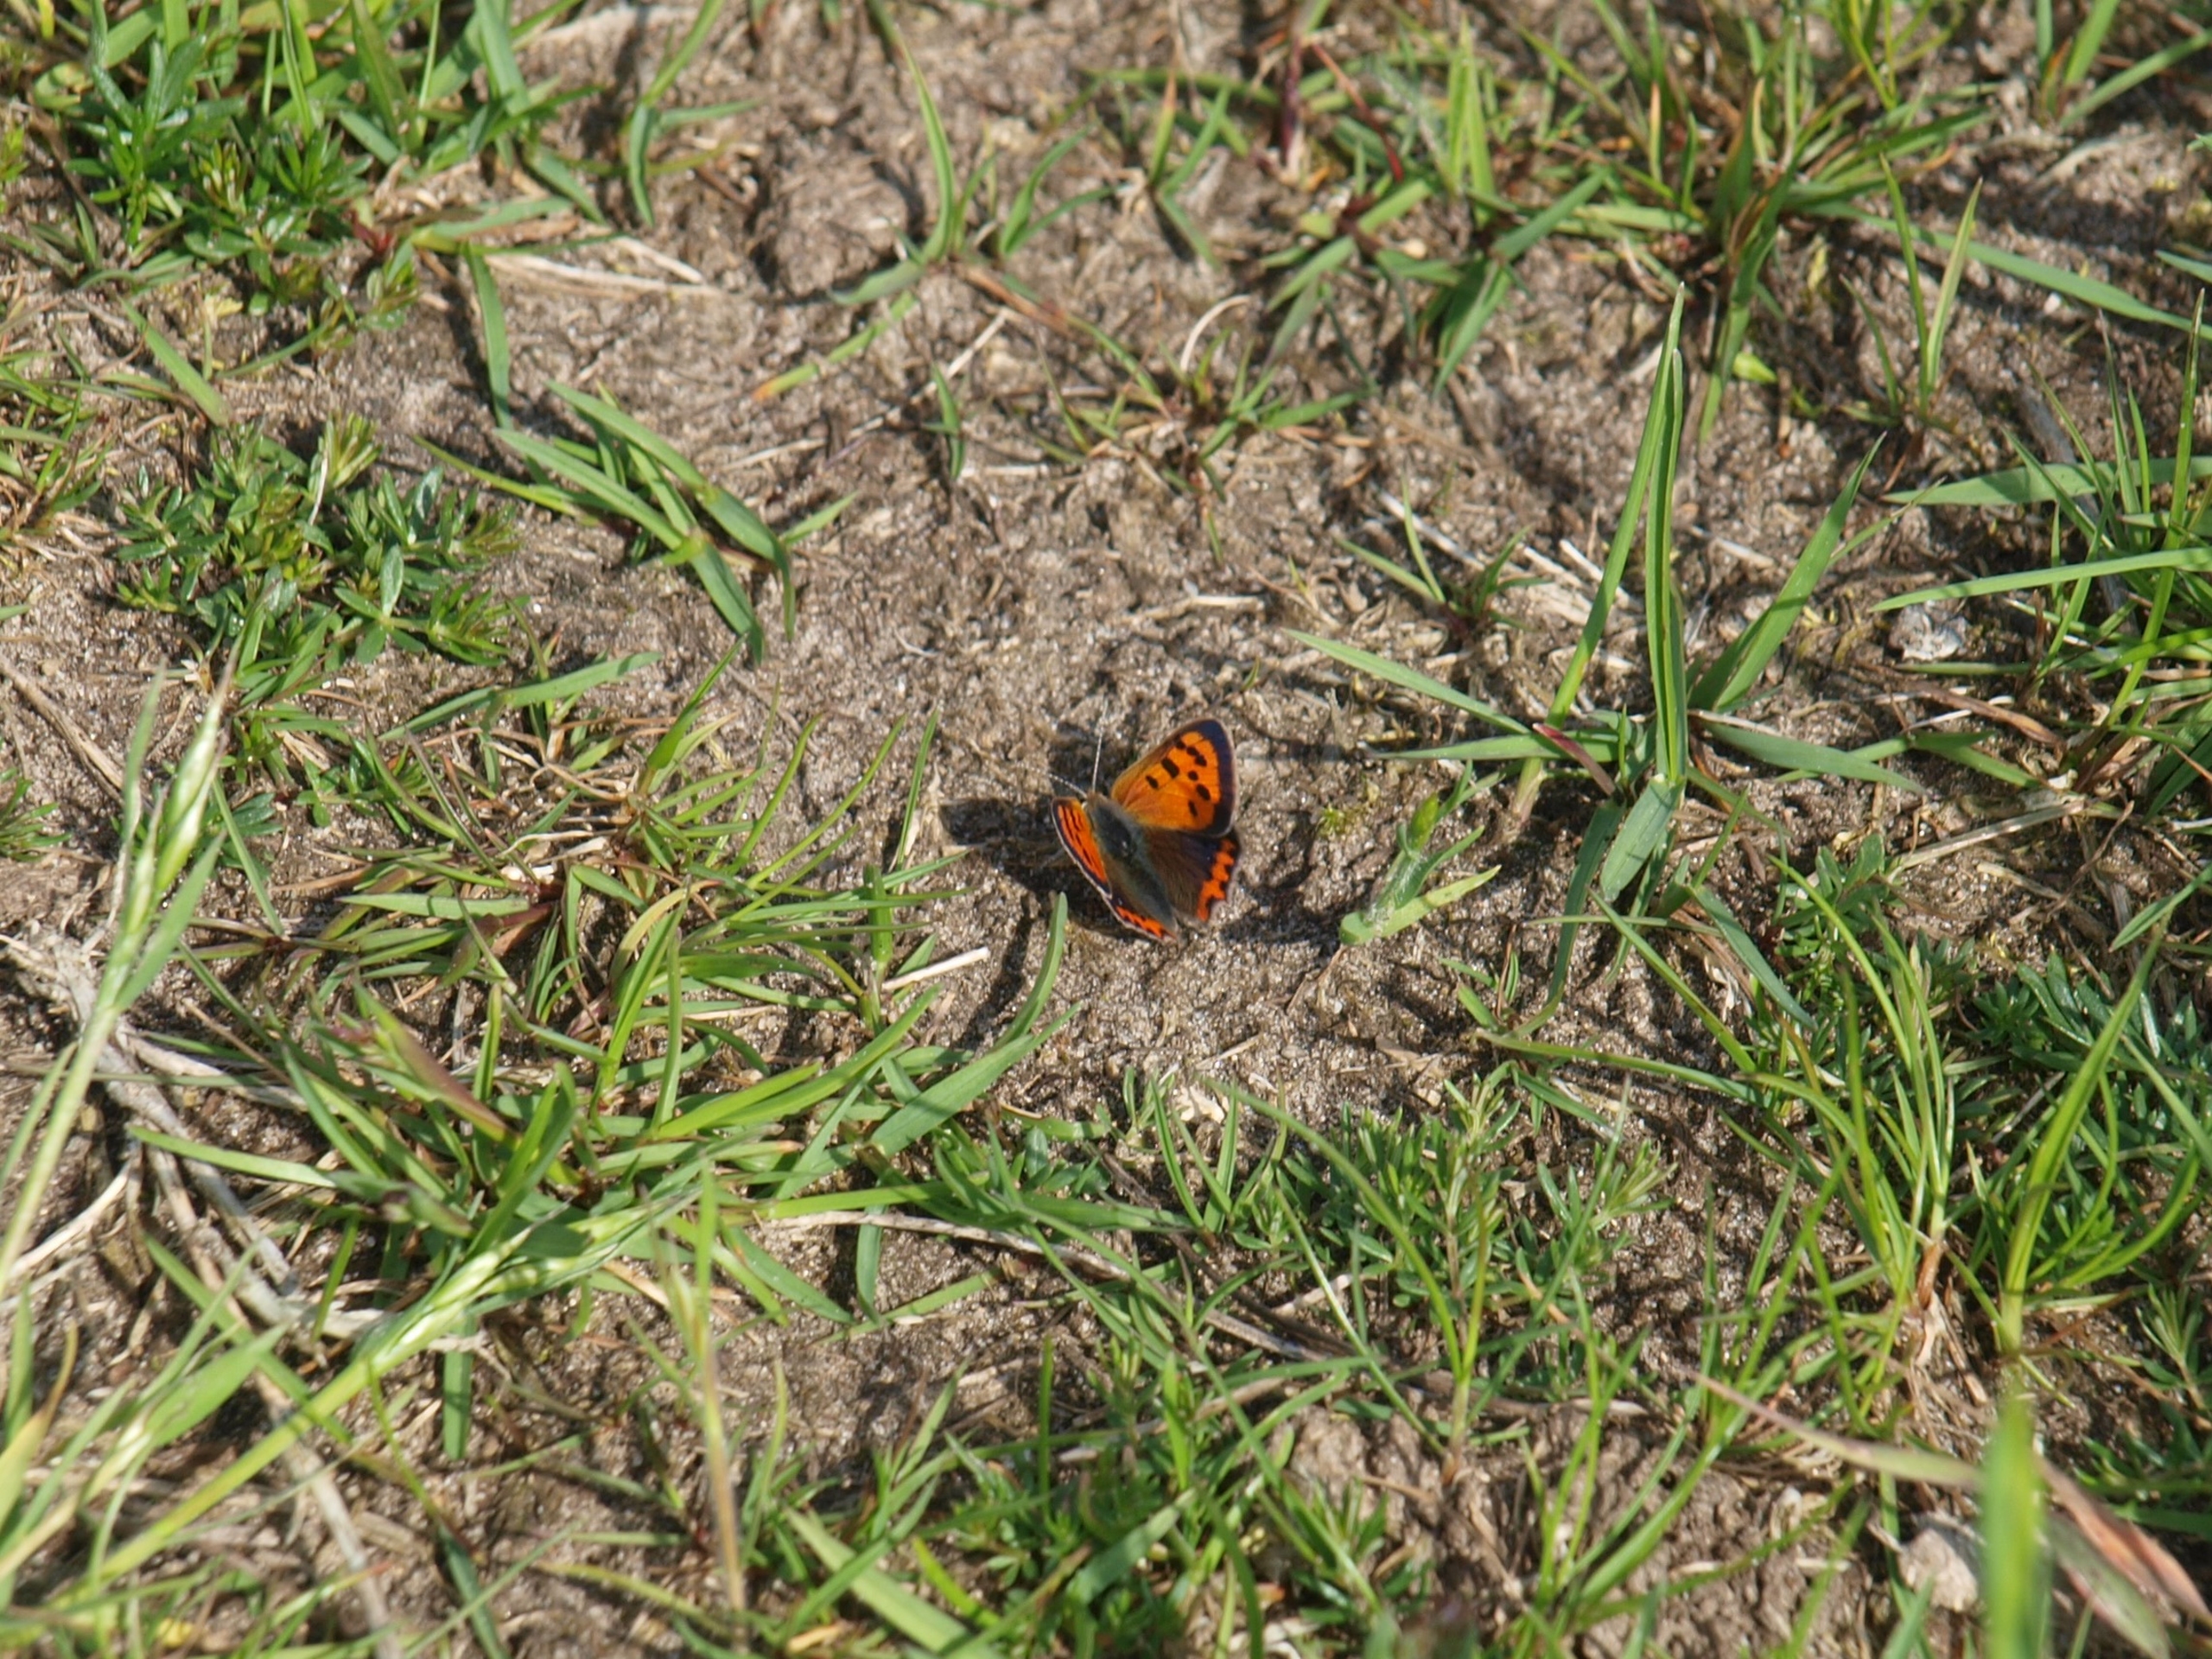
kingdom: Animalia
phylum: Arthropoda
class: Insecta
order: Lepidoptera
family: Lycaenidae
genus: Lycaena
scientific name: Lycaena phlaeas
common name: Lille ildfugl
